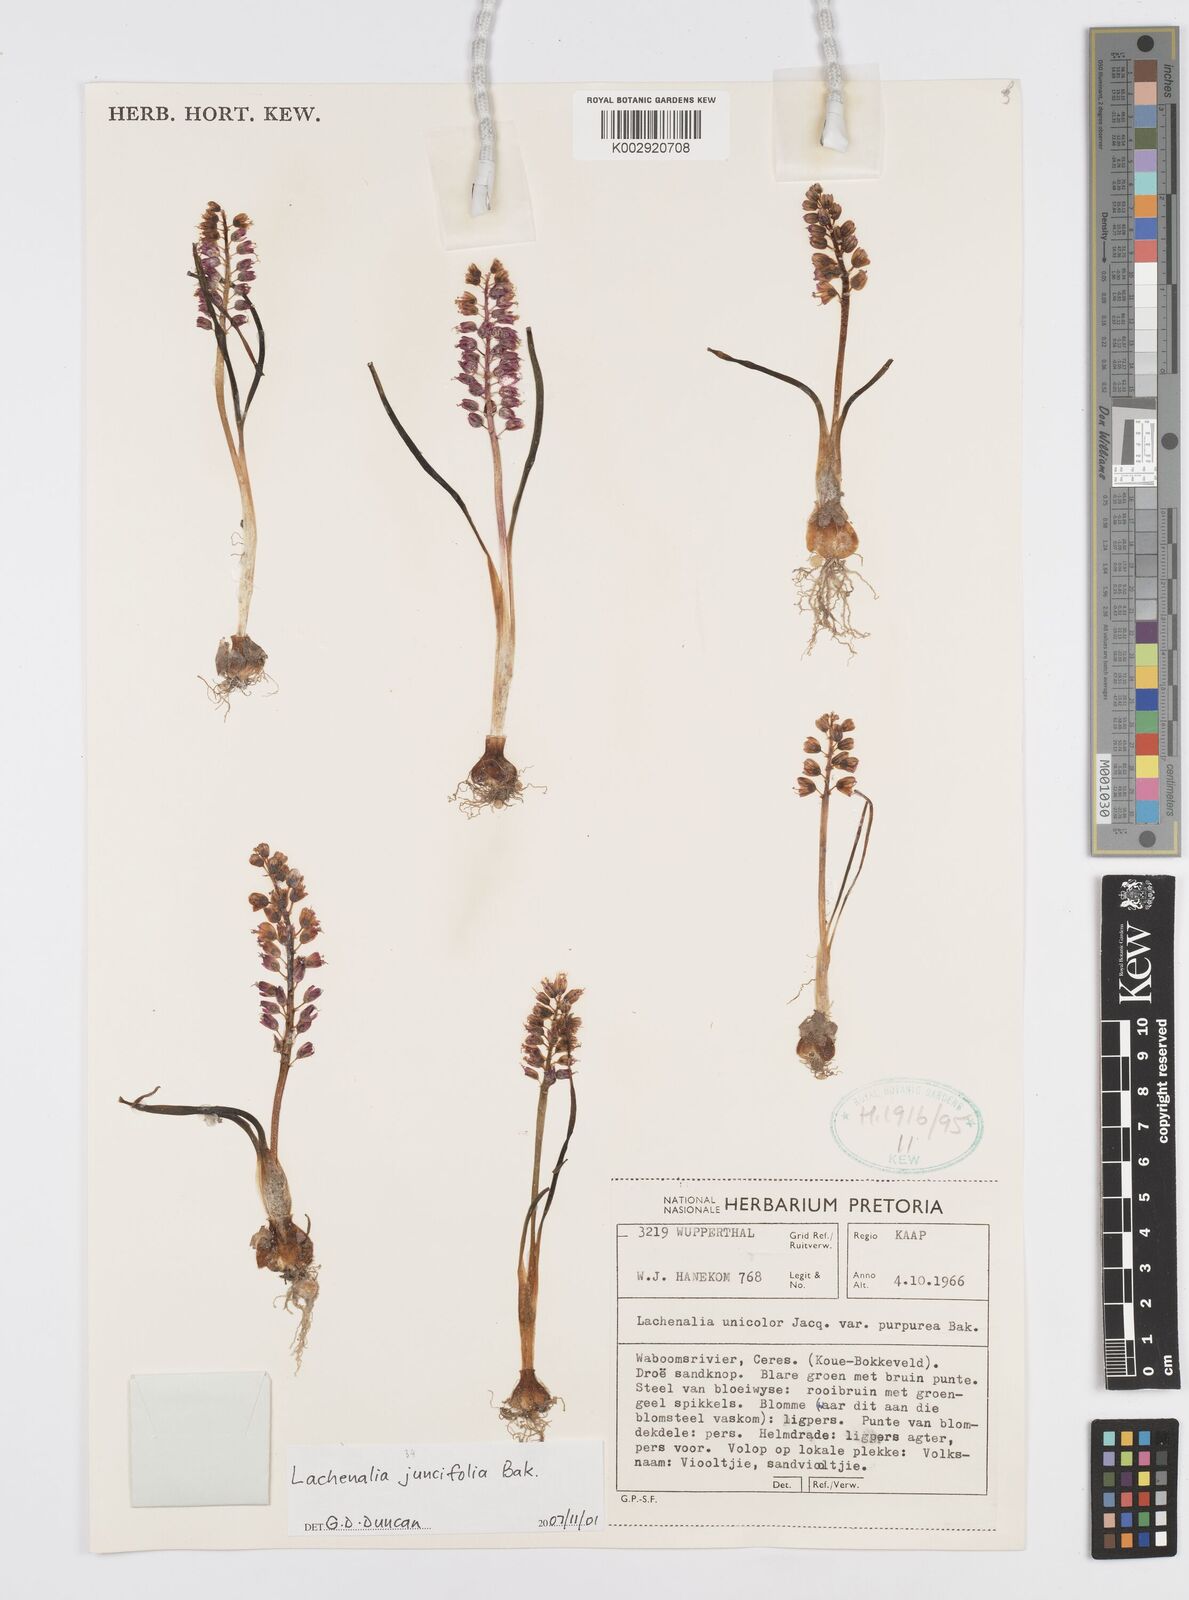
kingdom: Plantae
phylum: Tracheophyta
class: Liliopsida
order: Asparagales
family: Asparagaceae
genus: Lachenalia
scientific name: Lachenalia juncifolia
